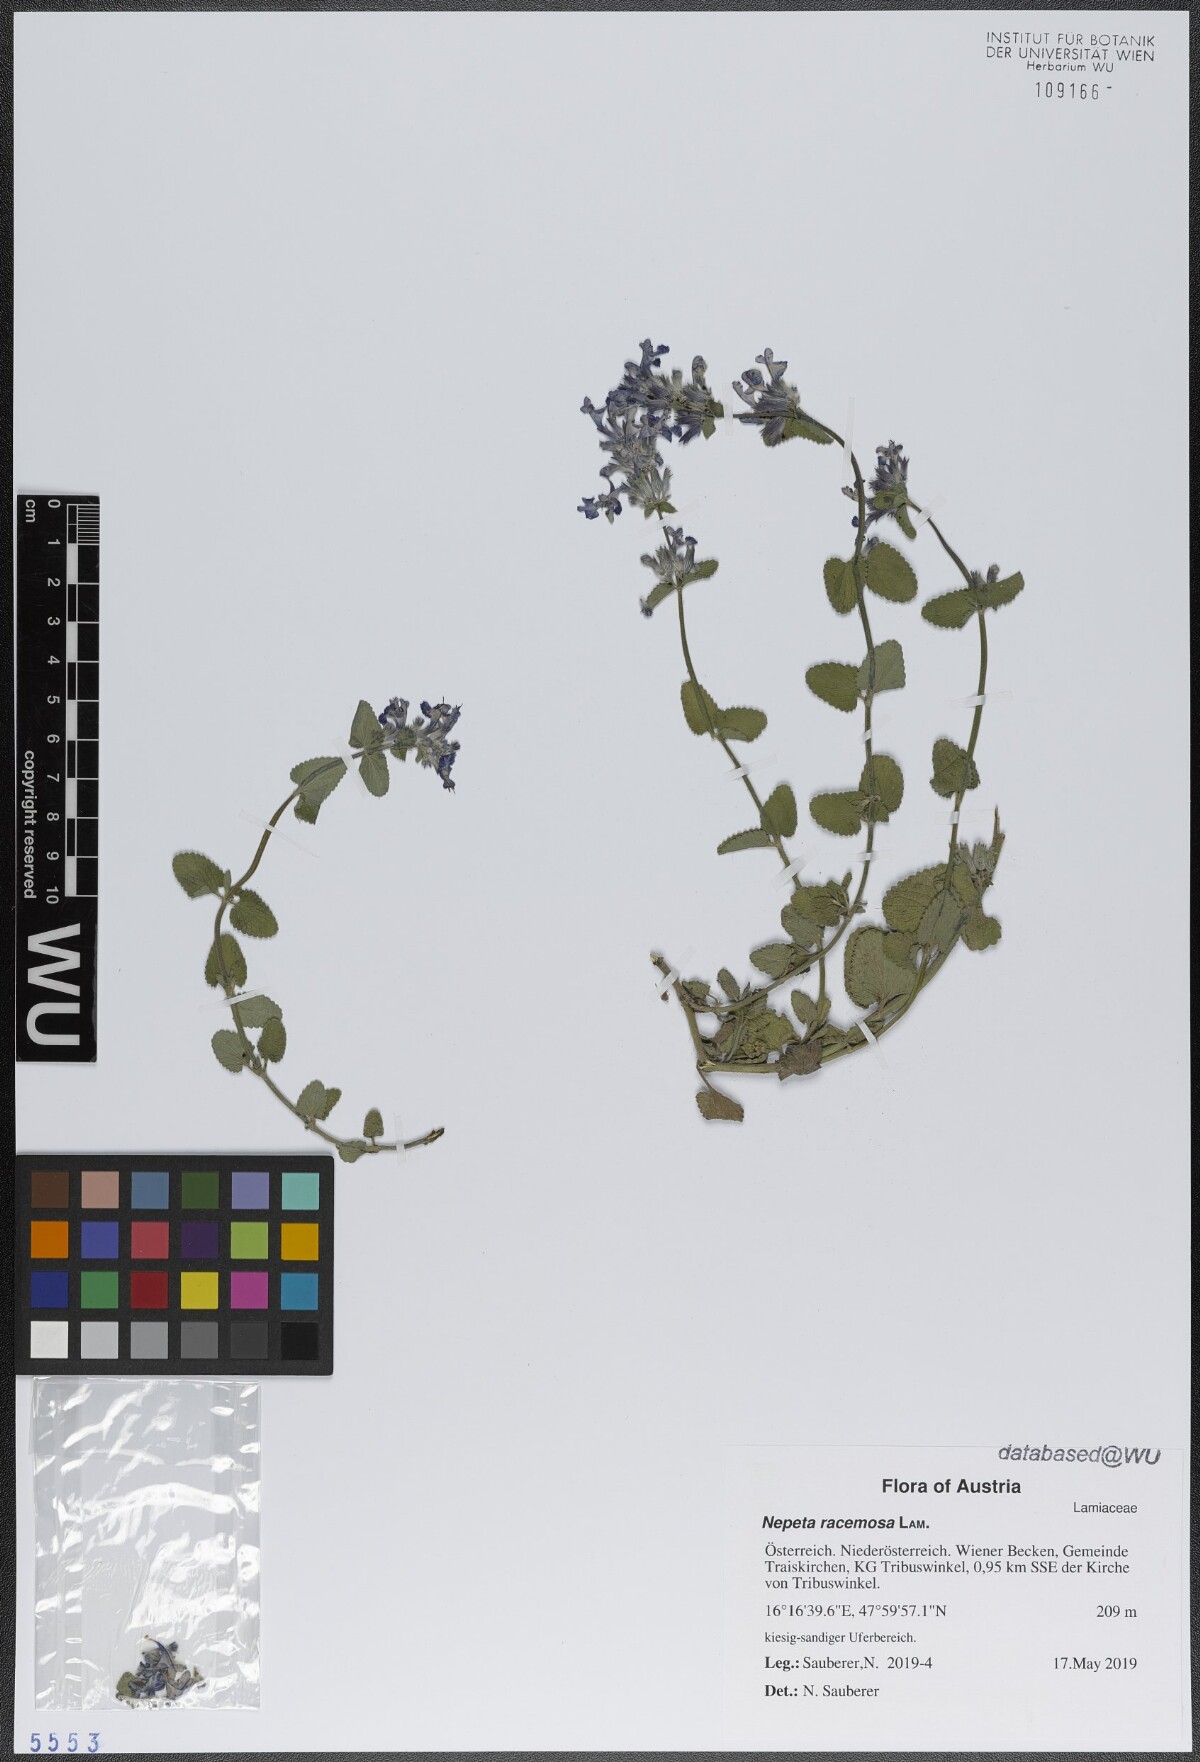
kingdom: Plantae
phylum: Tracheophyta
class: Magnoliopsida
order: Lamiales
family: Lamiaceae
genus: Nepeta
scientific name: Nepeta racemosa
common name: Raceme catnip
